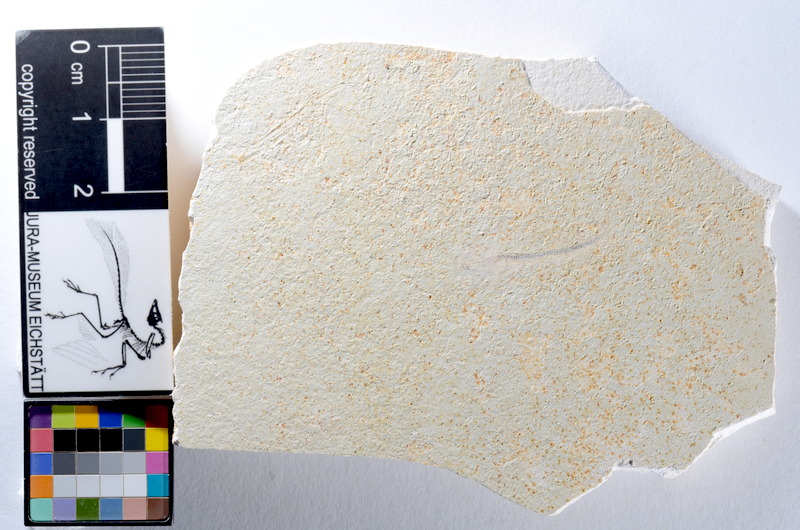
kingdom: Animalia
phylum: Chordata
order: Salmoniformes
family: Orthogonikleithridae
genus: Orthogonikleithrus
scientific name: Orthogonikleithrus hoelli
